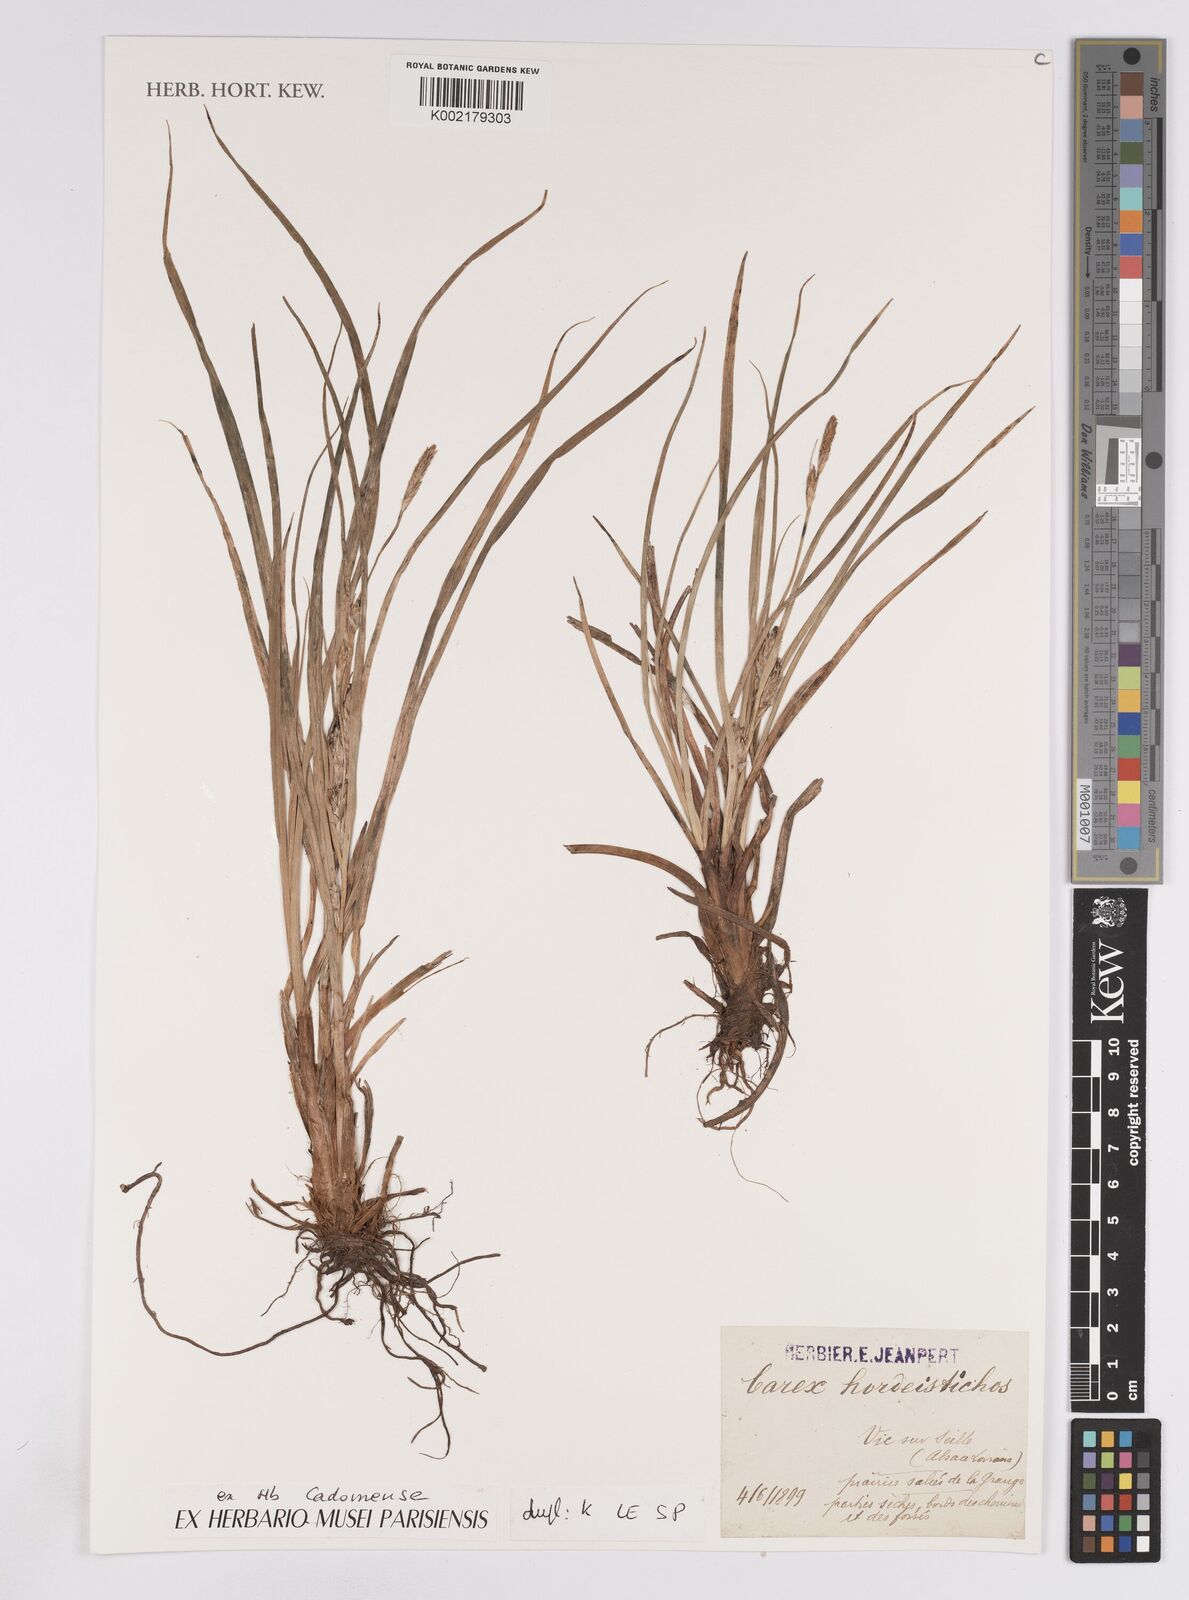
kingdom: Plantae
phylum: Tracheophyta
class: Liliopsida
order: Poales
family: Cyperaceae
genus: Carex
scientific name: Carex hordeistichos
